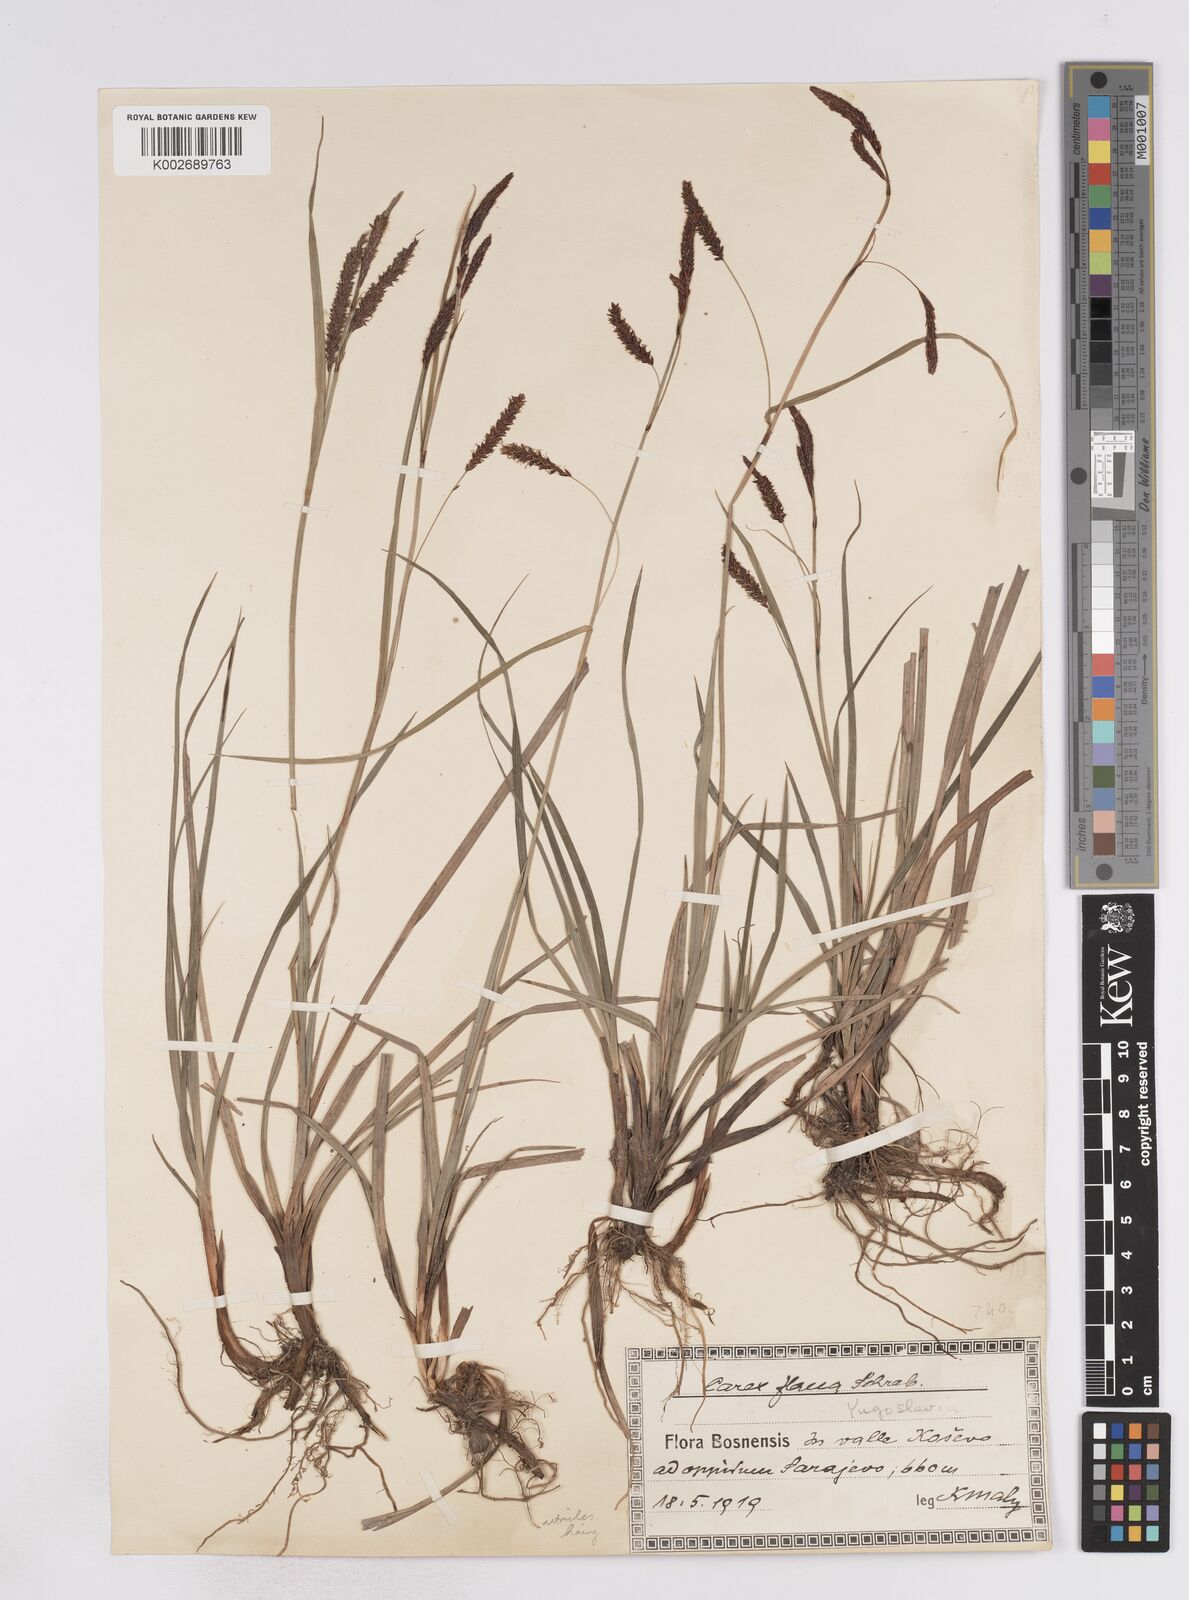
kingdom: Plantae
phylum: Tracheophyta
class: Liliopsida
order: Poales
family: Cyperaceae
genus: Carex
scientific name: Carex flacca
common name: Glaucous sedge
